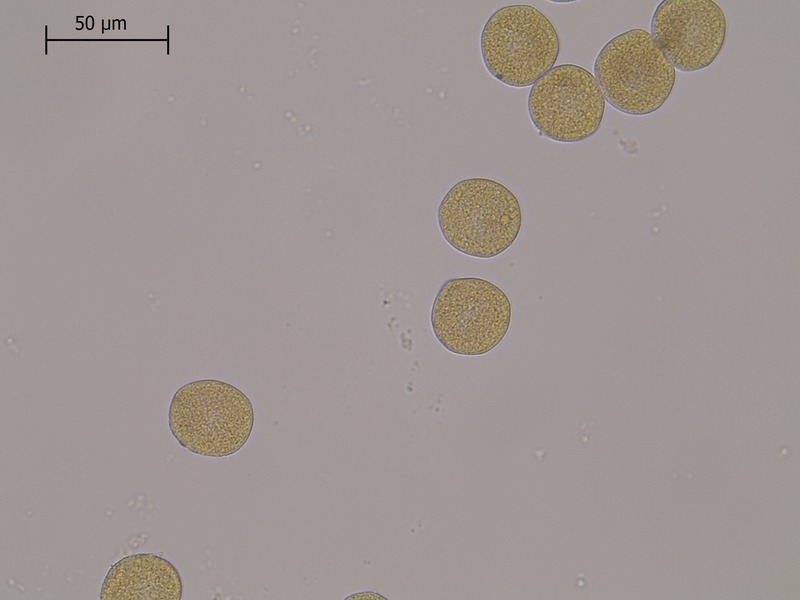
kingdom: Fungi
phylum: Basidiomycota
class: Pucciniomycetes
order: Pucciniales
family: Pucciniaceae
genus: Puccinia
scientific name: Puccinia brachypodii
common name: Rust fungus
